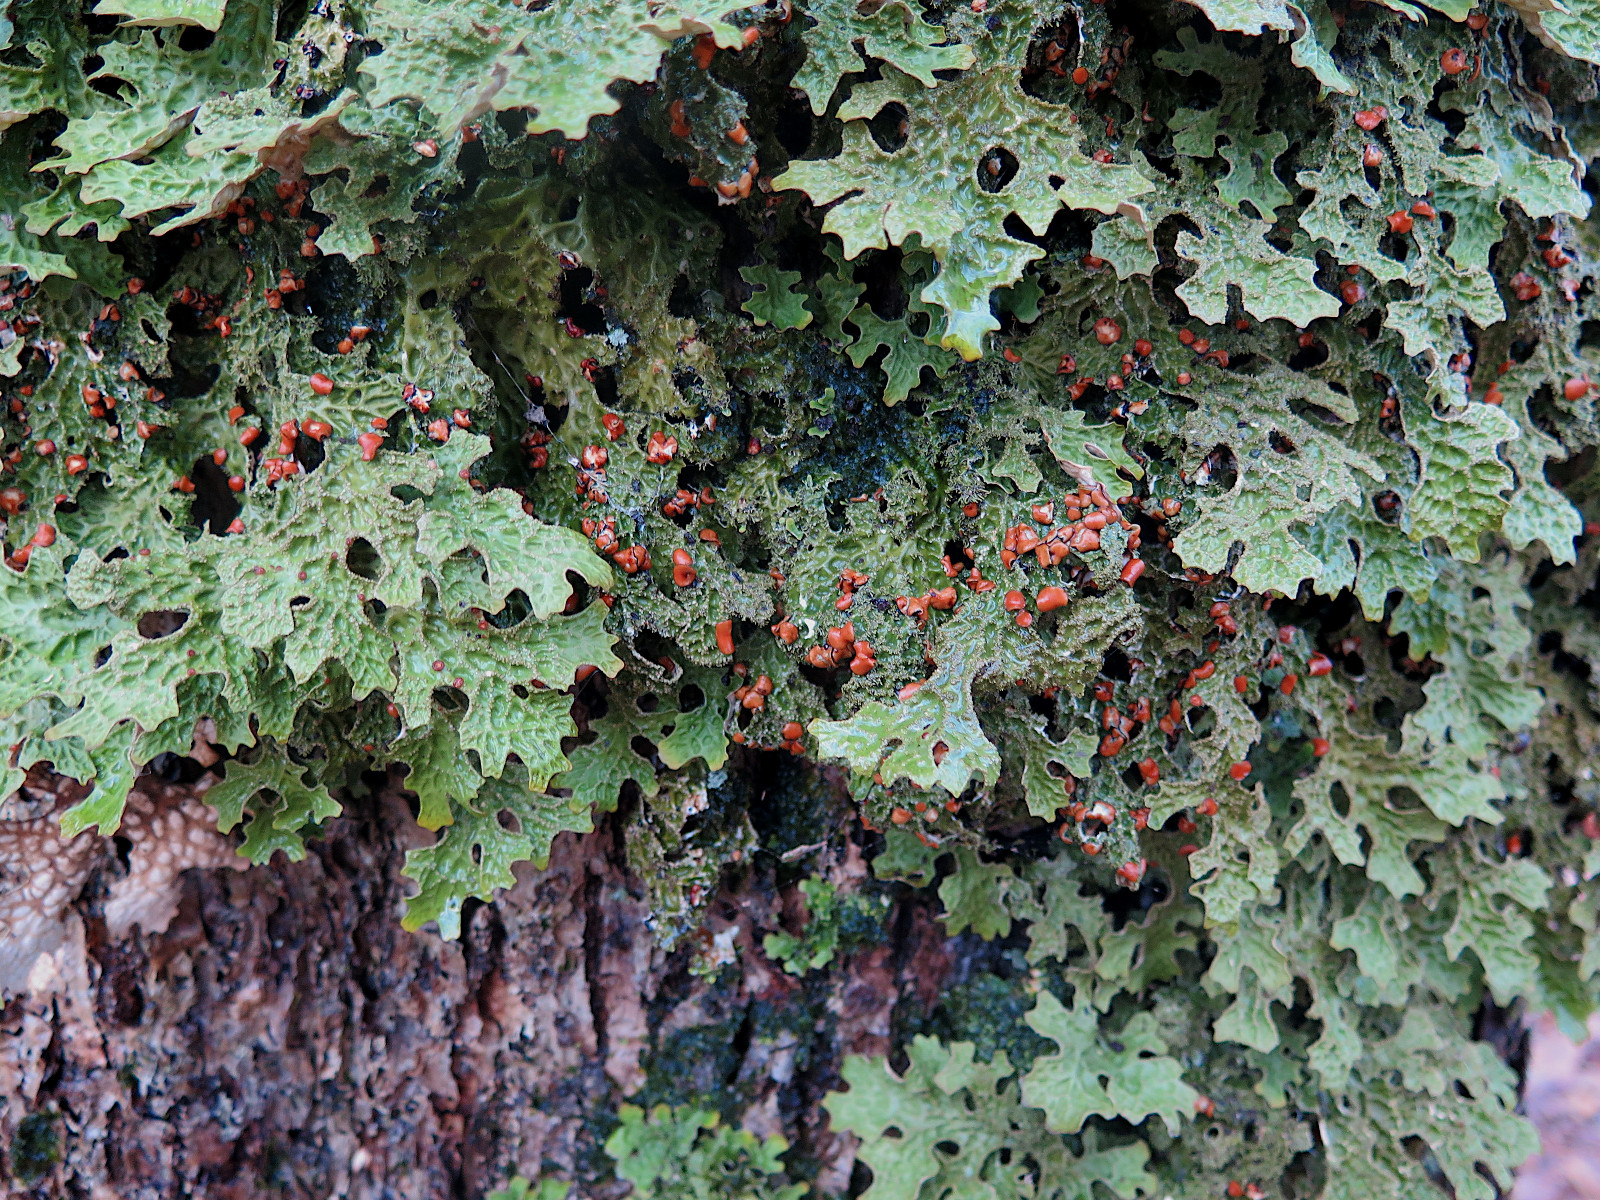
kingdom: Fungi
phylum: Ascomycota
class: Lecanoromycetes
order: Peltigerales
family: Lobariaceae
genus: Lobaria
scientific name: Lobaria pulmonaria
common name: almindelig lungelav
